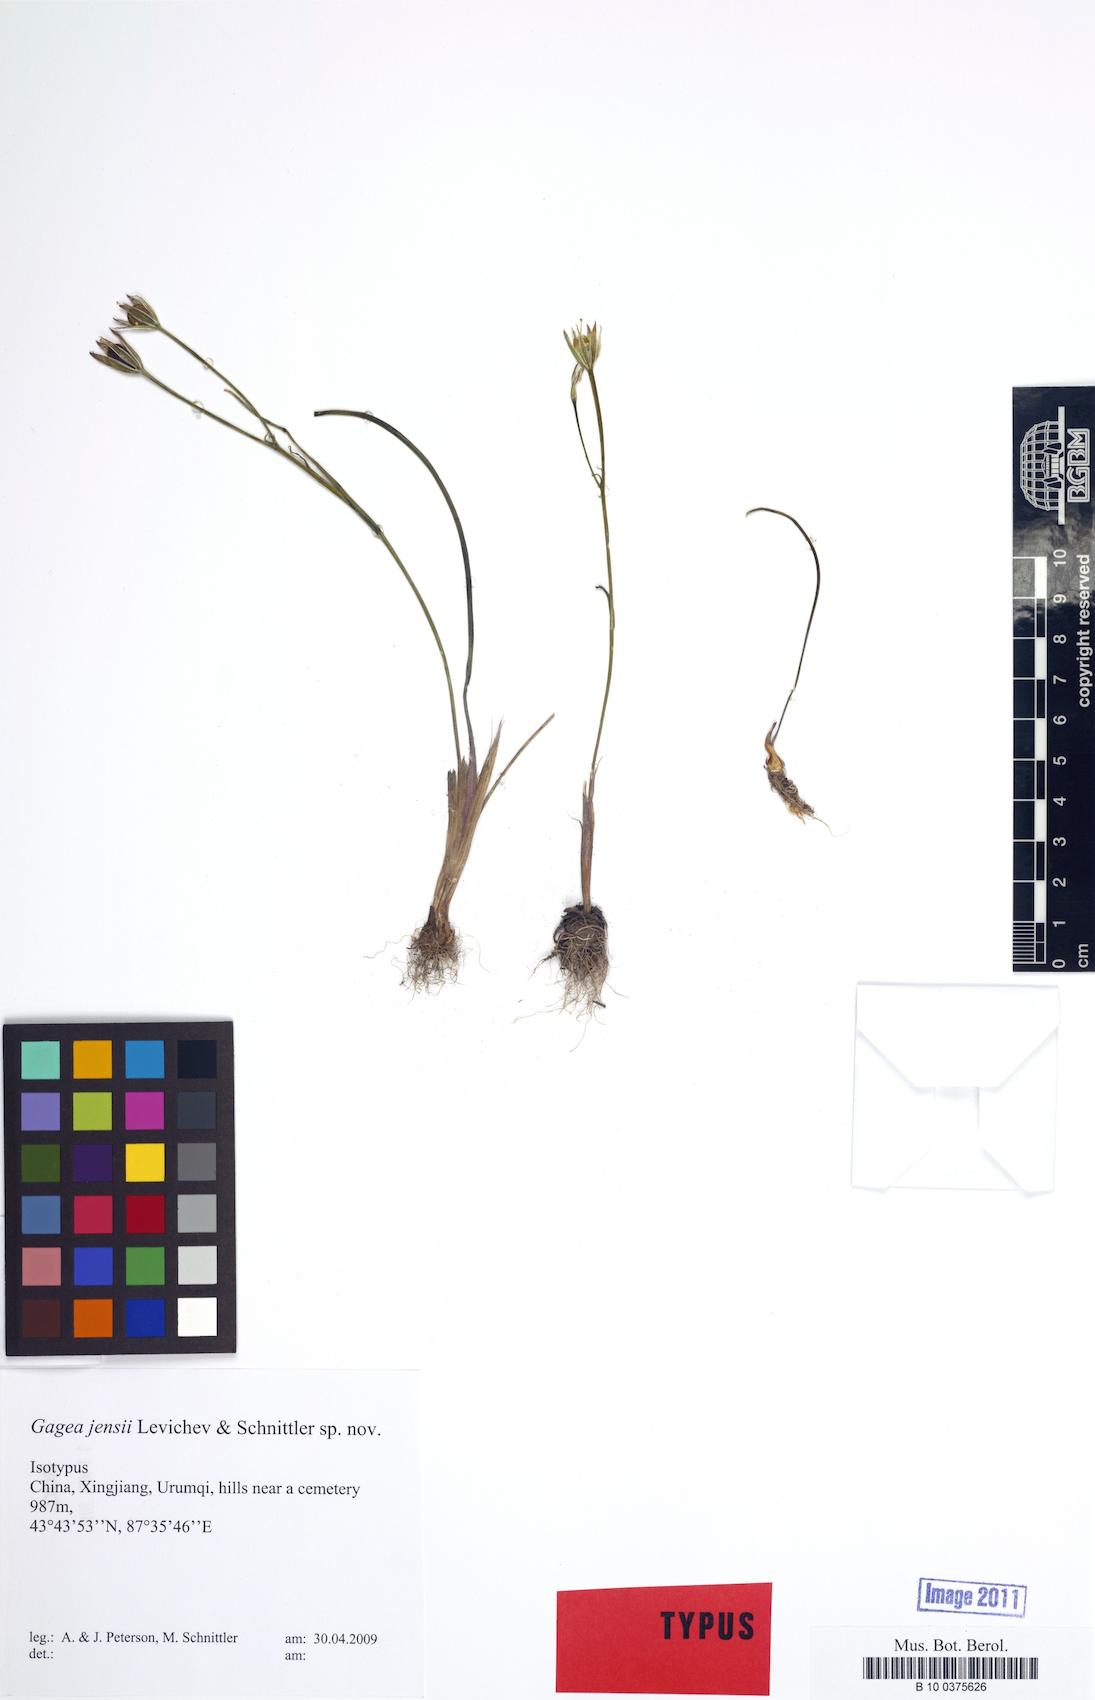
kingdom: Plantae
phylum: Tracheophyta
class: Liliopsida
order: Liliales
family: Liliaceae
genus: Gagea
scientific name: Gagea jensii
